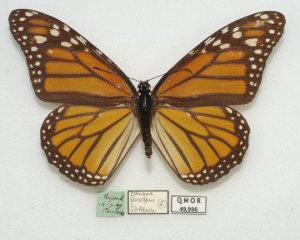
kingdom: Animalia
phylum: Arthropoda
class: Insecta
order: Lepidoptera
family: Nymphalidae
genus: Danaus
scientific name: Danaus plexippus
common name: Monarch
